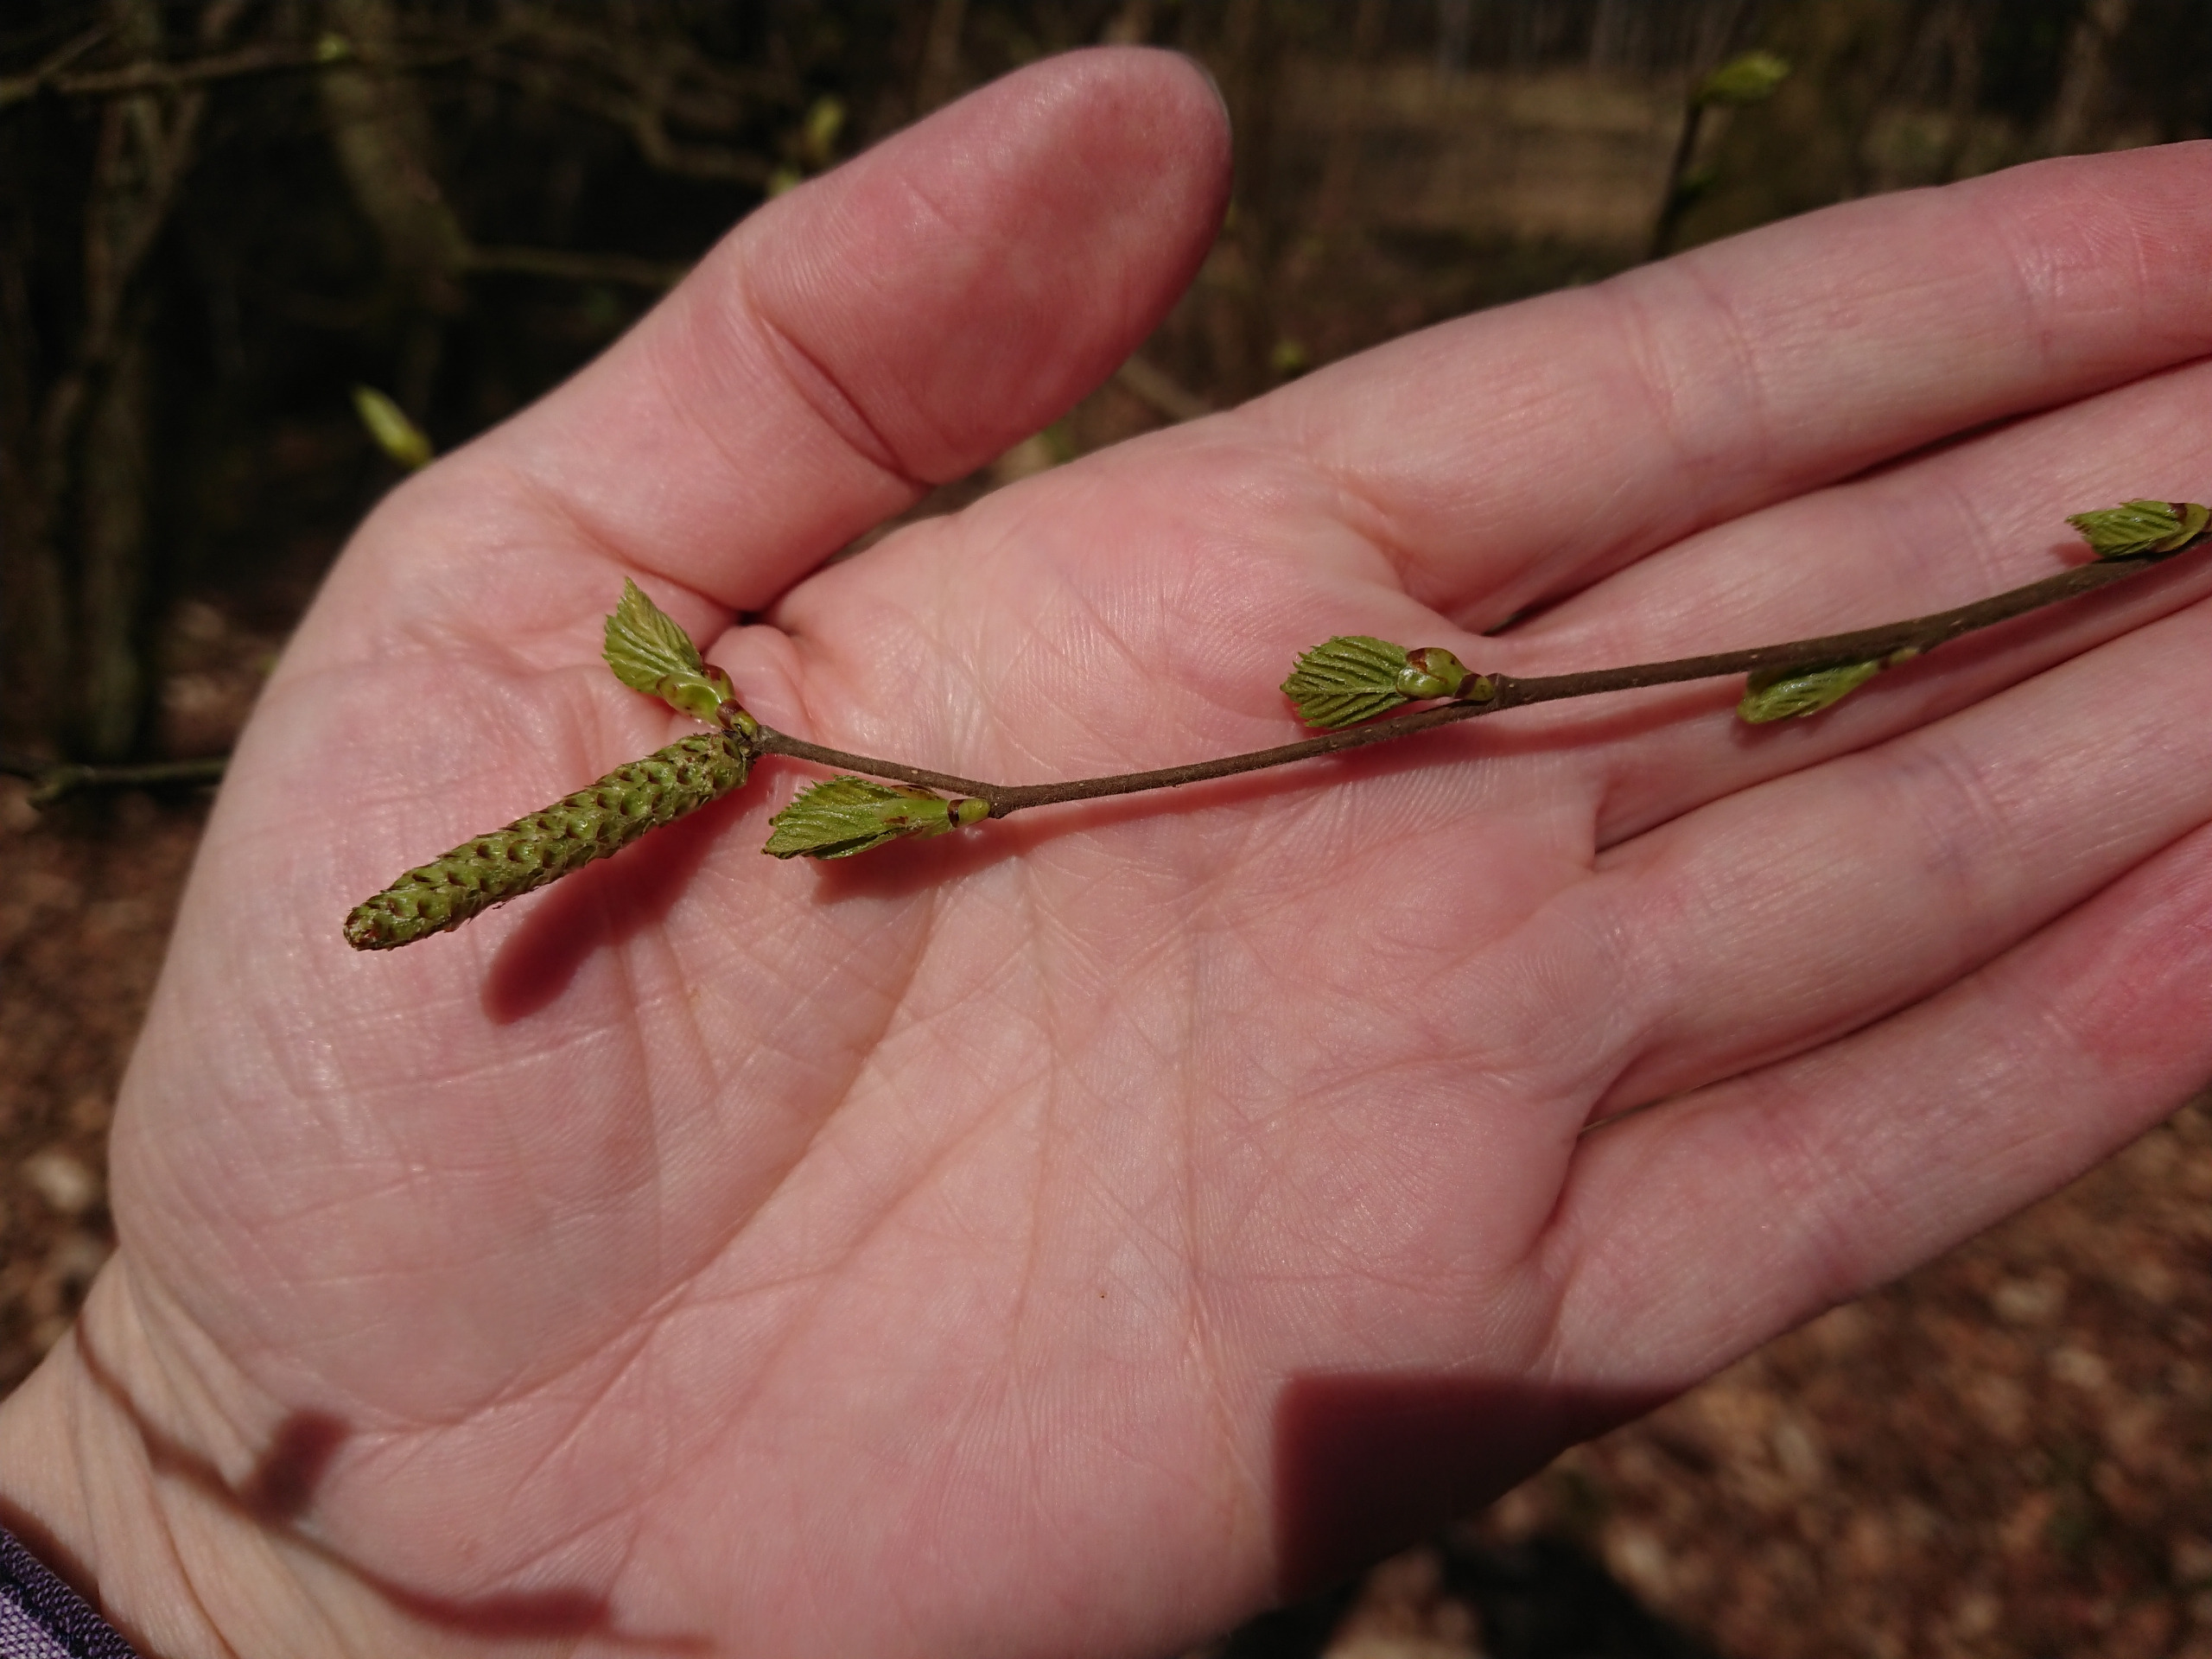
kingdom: Plantae
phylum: Tracheophyta
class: Magnoliopsida
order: Fagales
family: Betulaceae
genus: Betula
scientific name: Betula pubescens
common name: Dun-birk
